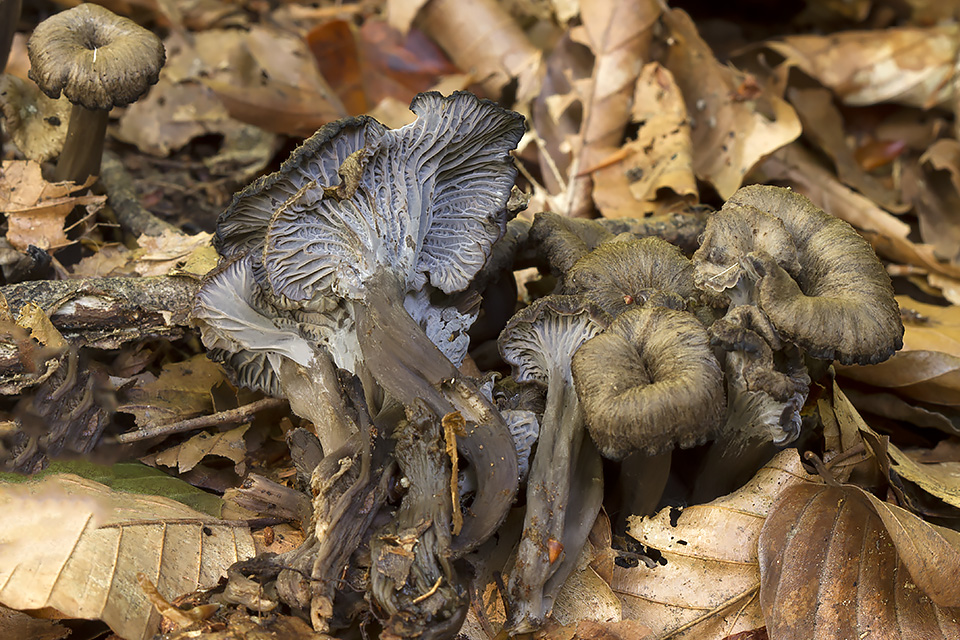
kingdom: Fungi
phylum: Basidiomycota
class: Agaricomycetes
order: Cantharellales
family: Hydnaceae
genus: Cantharellus
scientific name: Cantharellus cinereus
